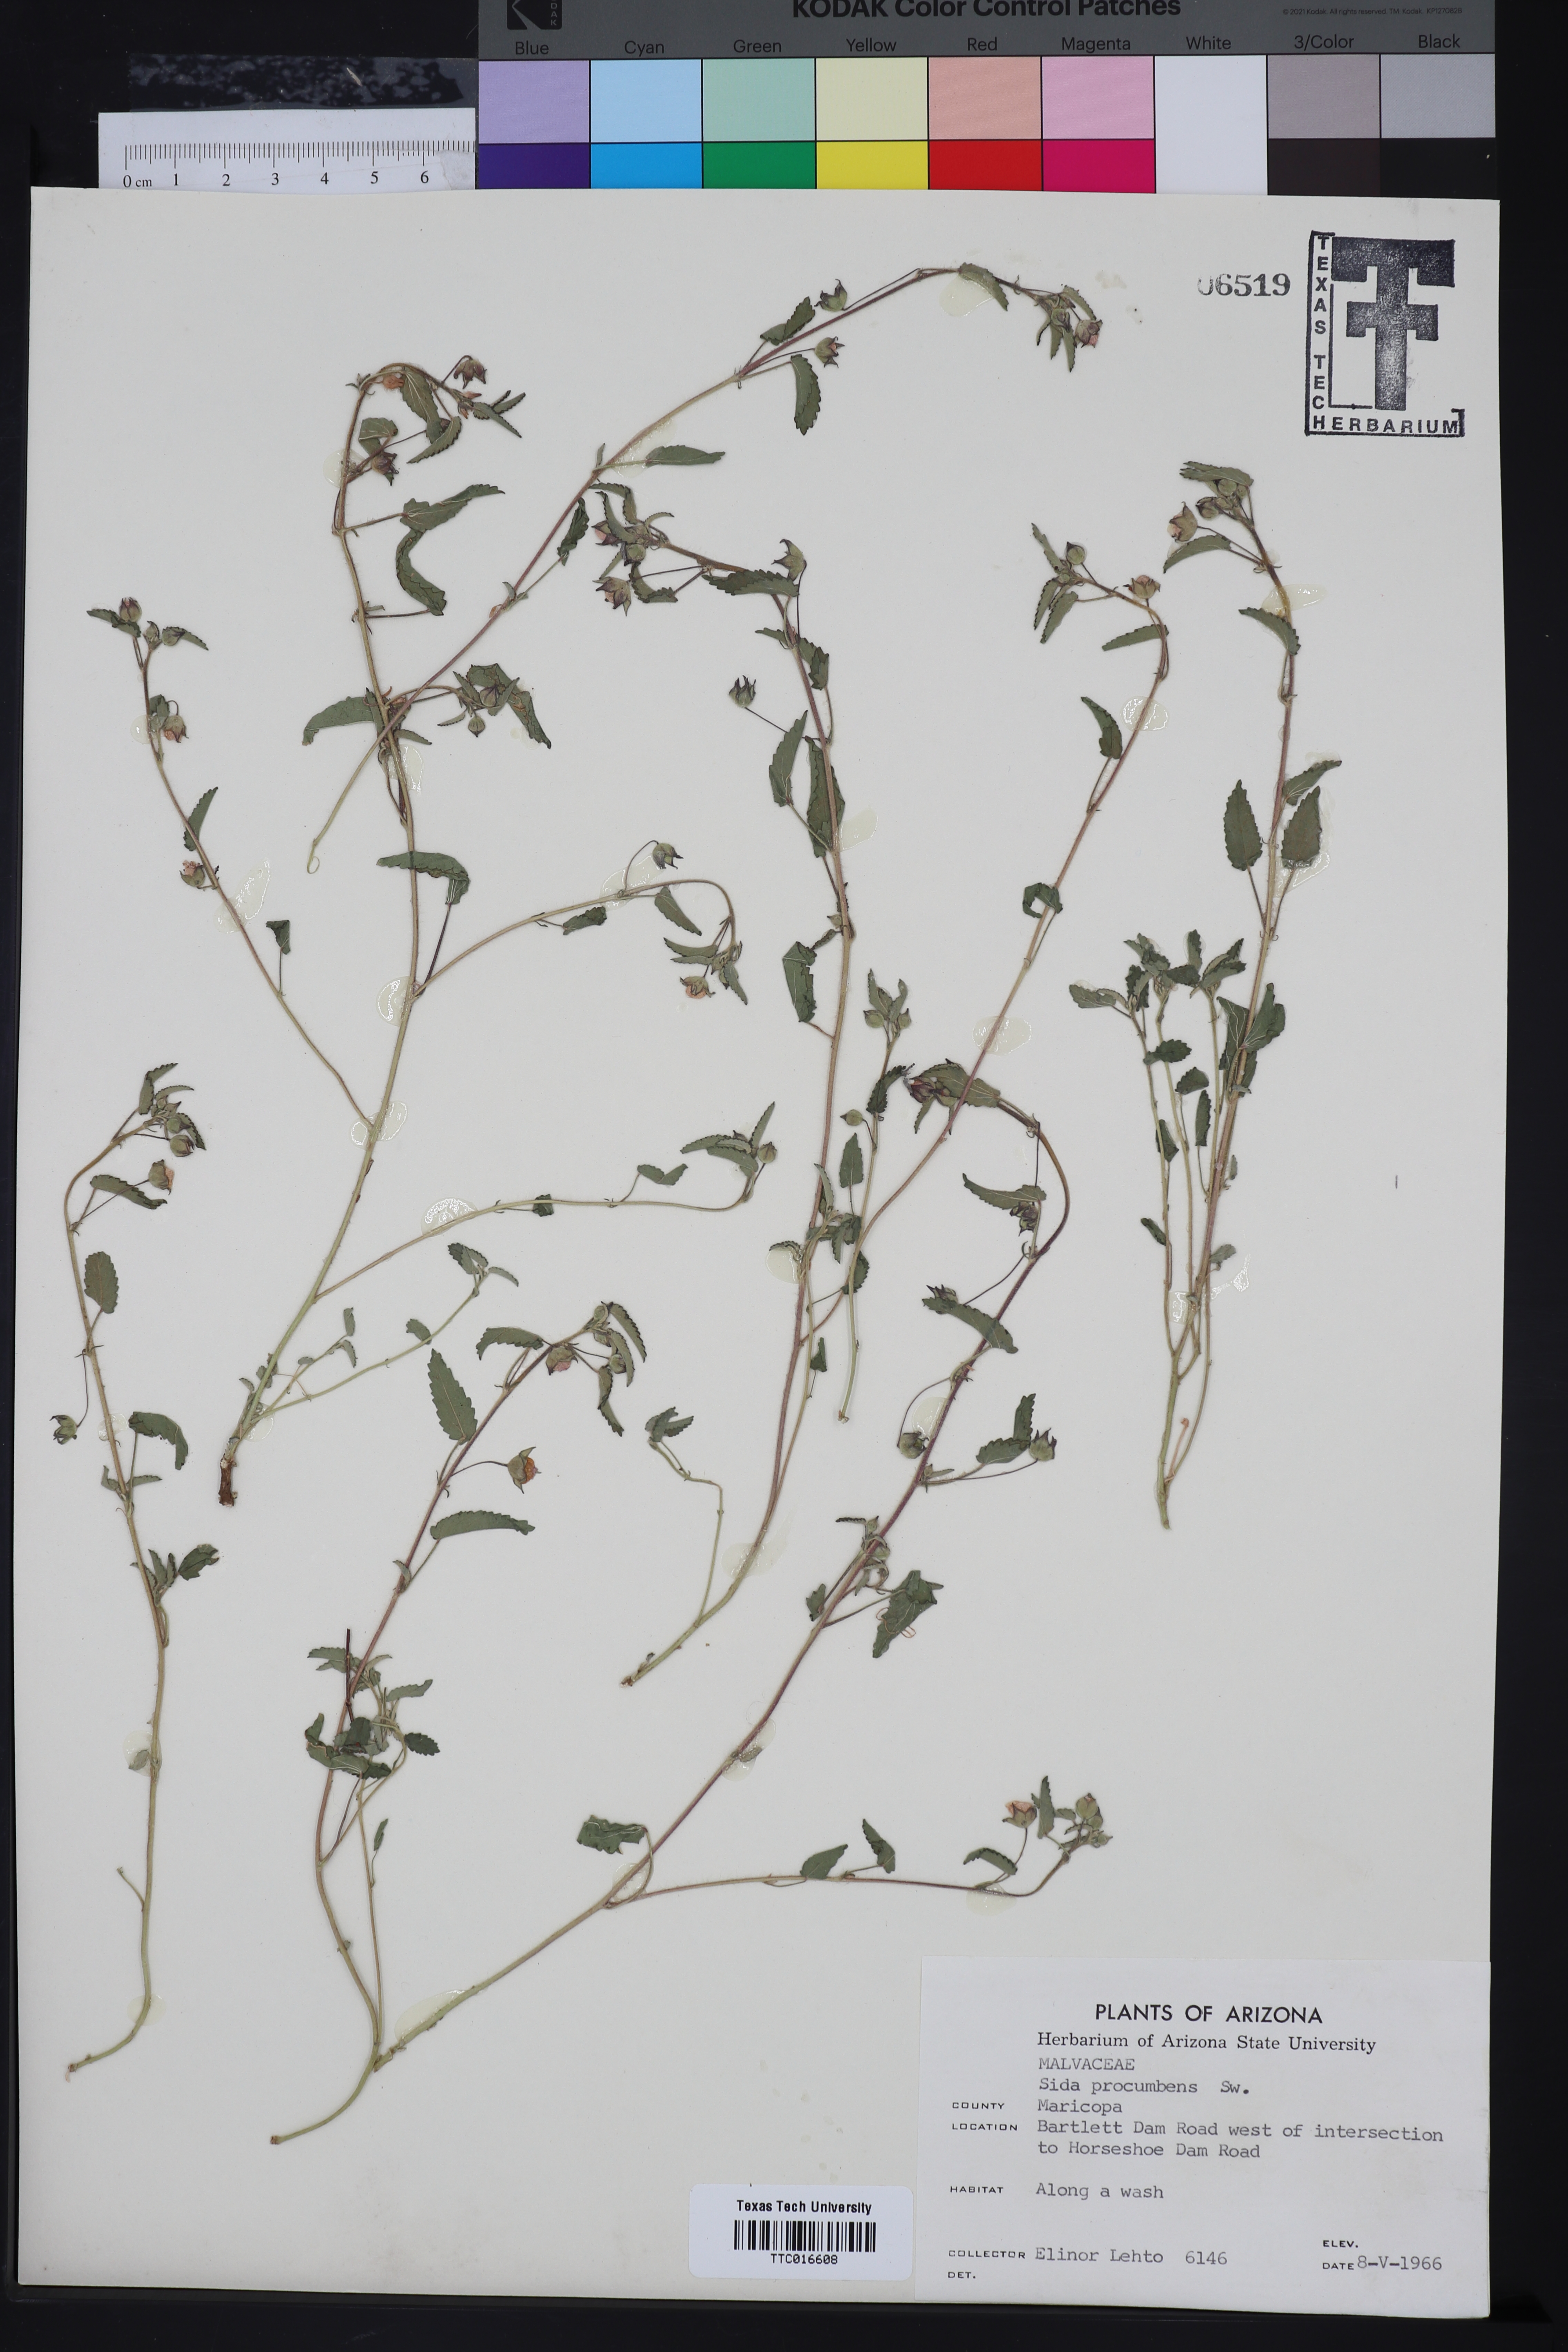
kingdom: Plantae
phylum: Tracheophyta
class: Magnoliopsida
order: Malvales
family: Malvaceae
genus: Sida
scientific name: Sida abutilifolia
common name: Spreading fanpetals
